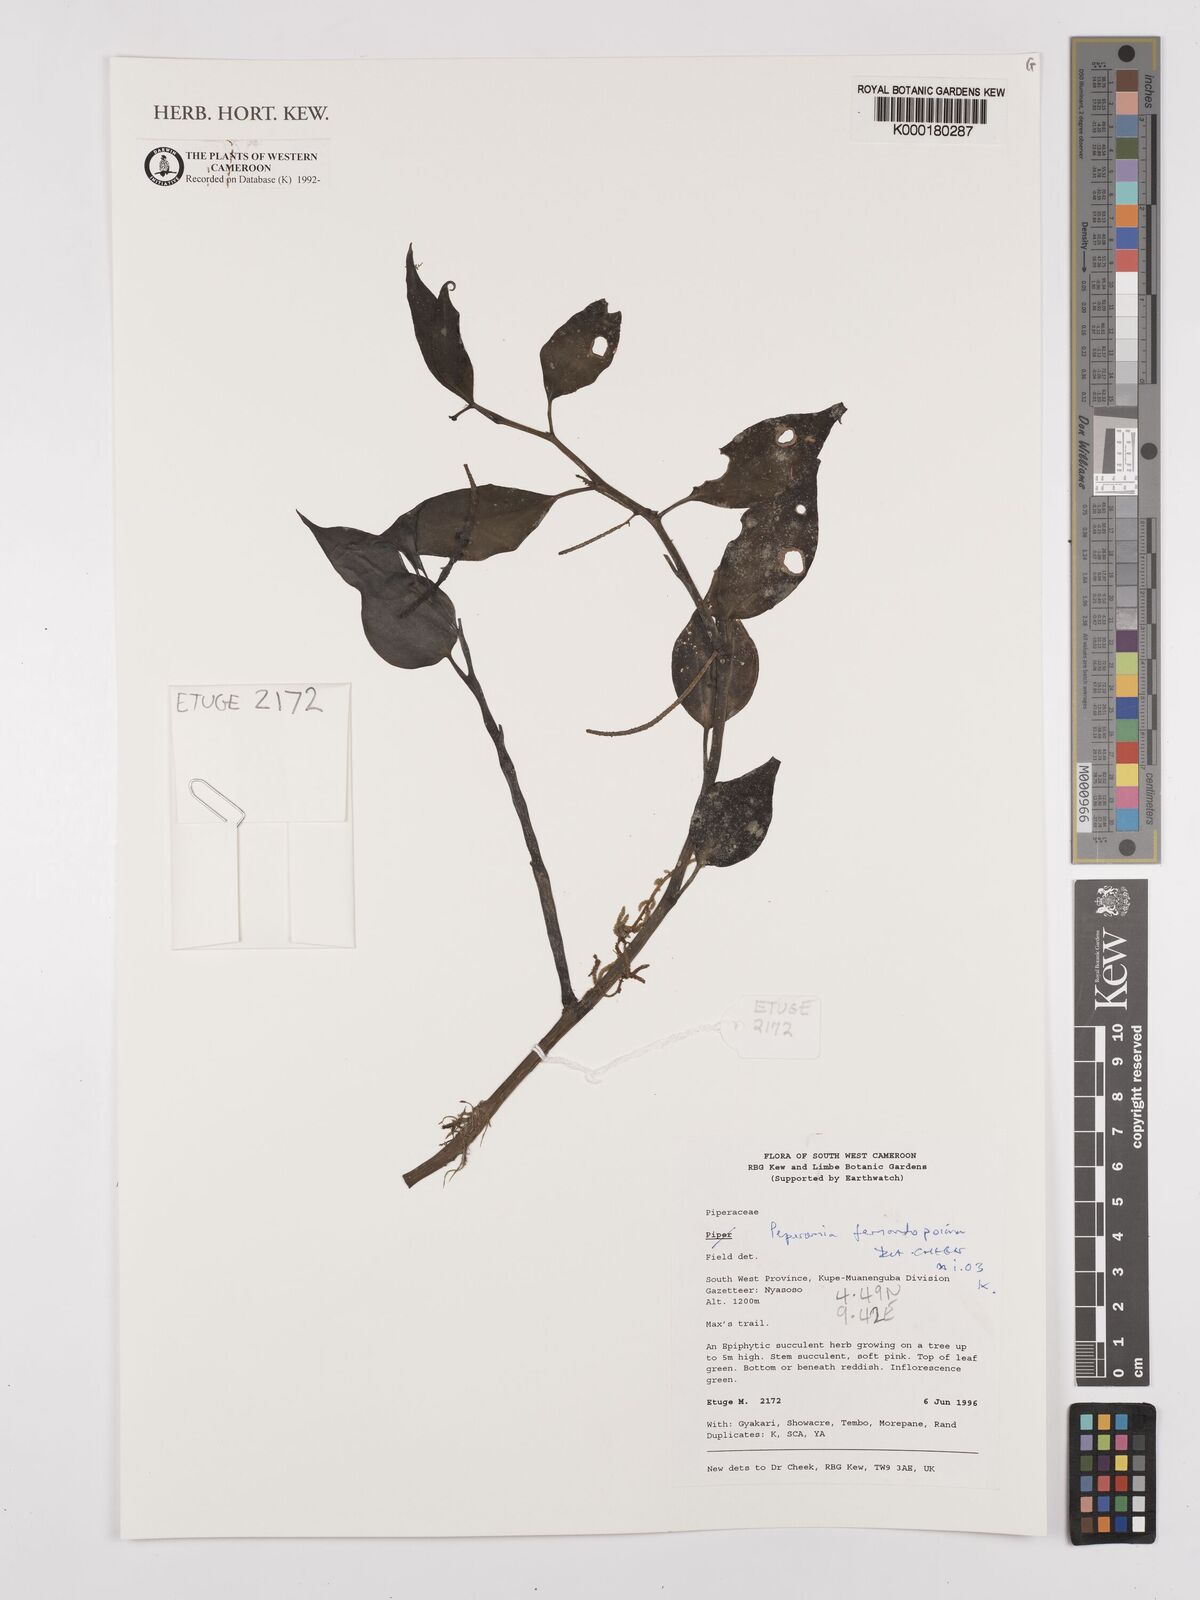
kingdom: Plantae
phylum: Tracheophyta
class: Magnoliopsida
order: Piperales
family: Piperaceae
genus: Peperomia
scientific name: Peperomia fernandopoiana
